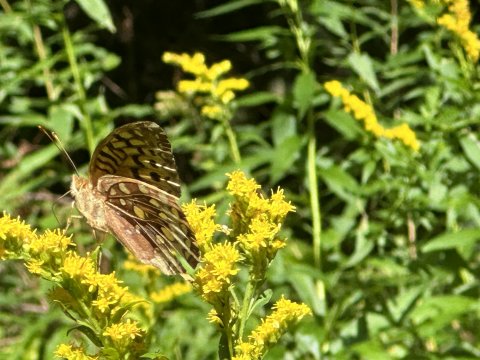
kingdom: Animalia
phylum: Arthropoda
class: Insecta
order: Lepidoptera
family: Nymphalidae
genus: Speyeria
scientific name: Speyeria cybele
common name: Great Spangled Fritillary
